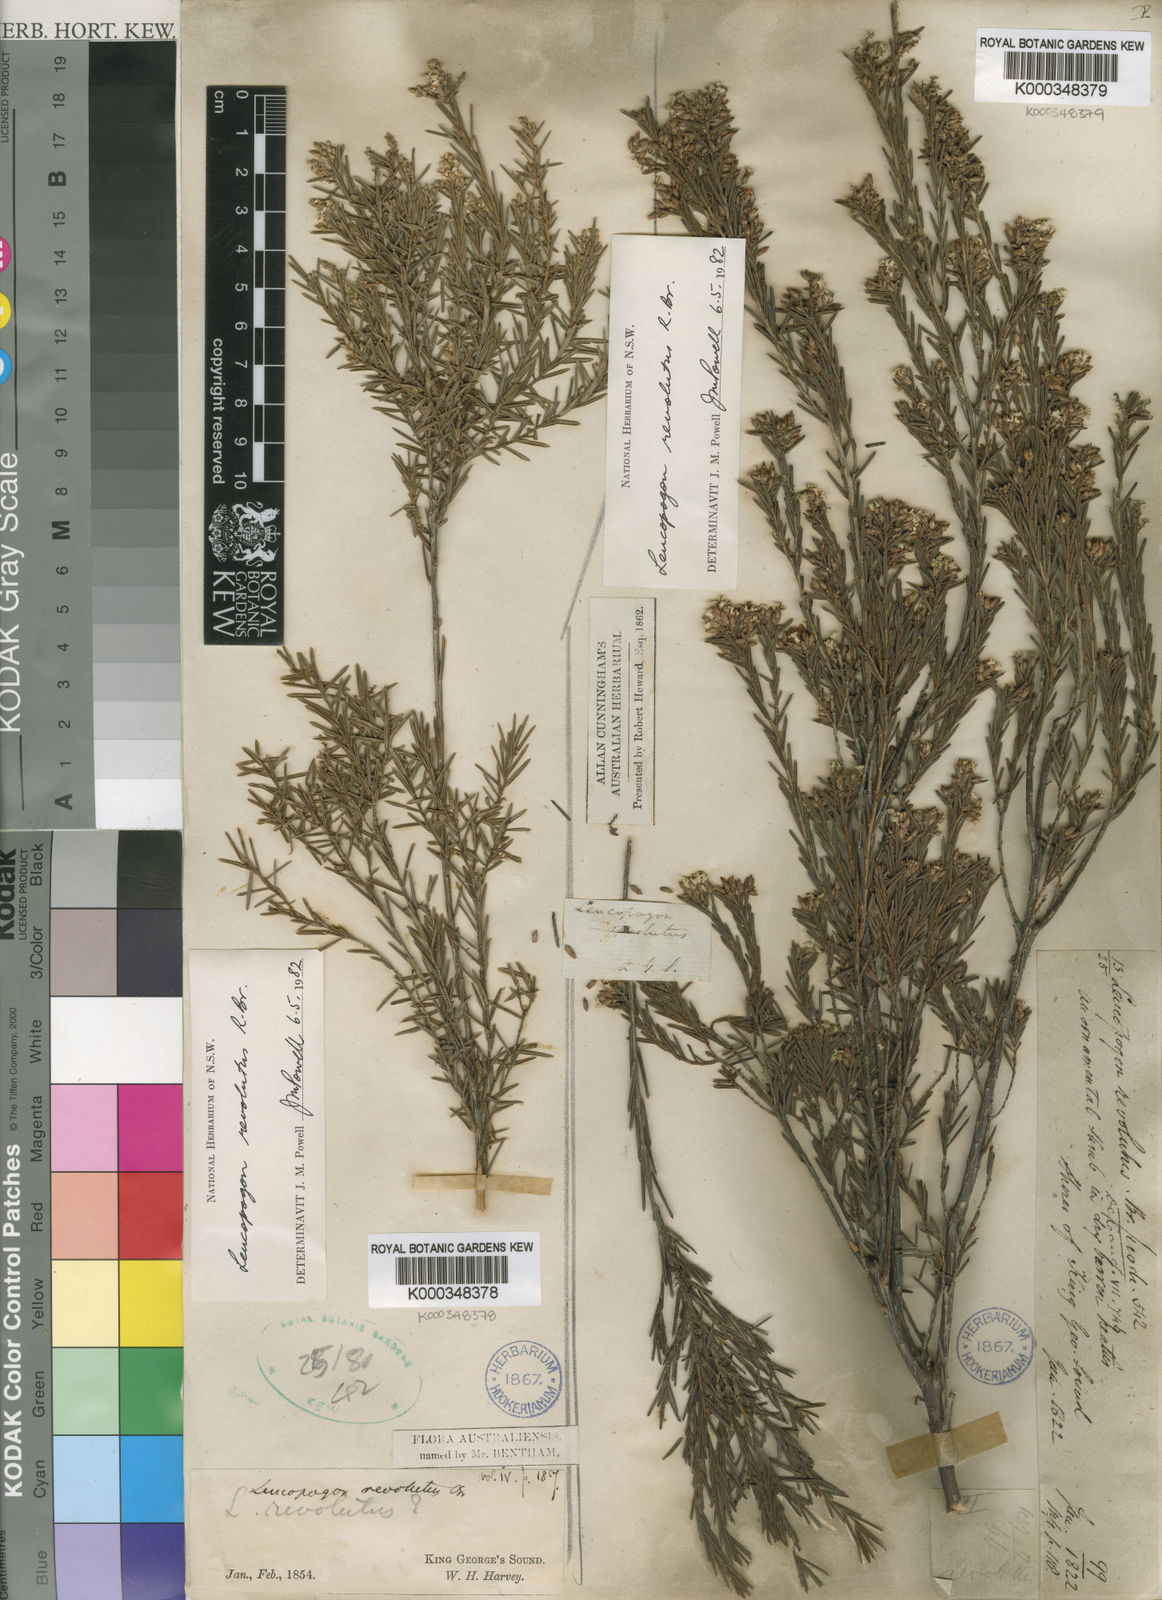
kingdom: Plantae
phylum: Tracheophyta
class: Magnoliopsida
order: Ericales
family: Ericaceae
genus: Leucopogon
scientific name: Leucopogon obovatus
